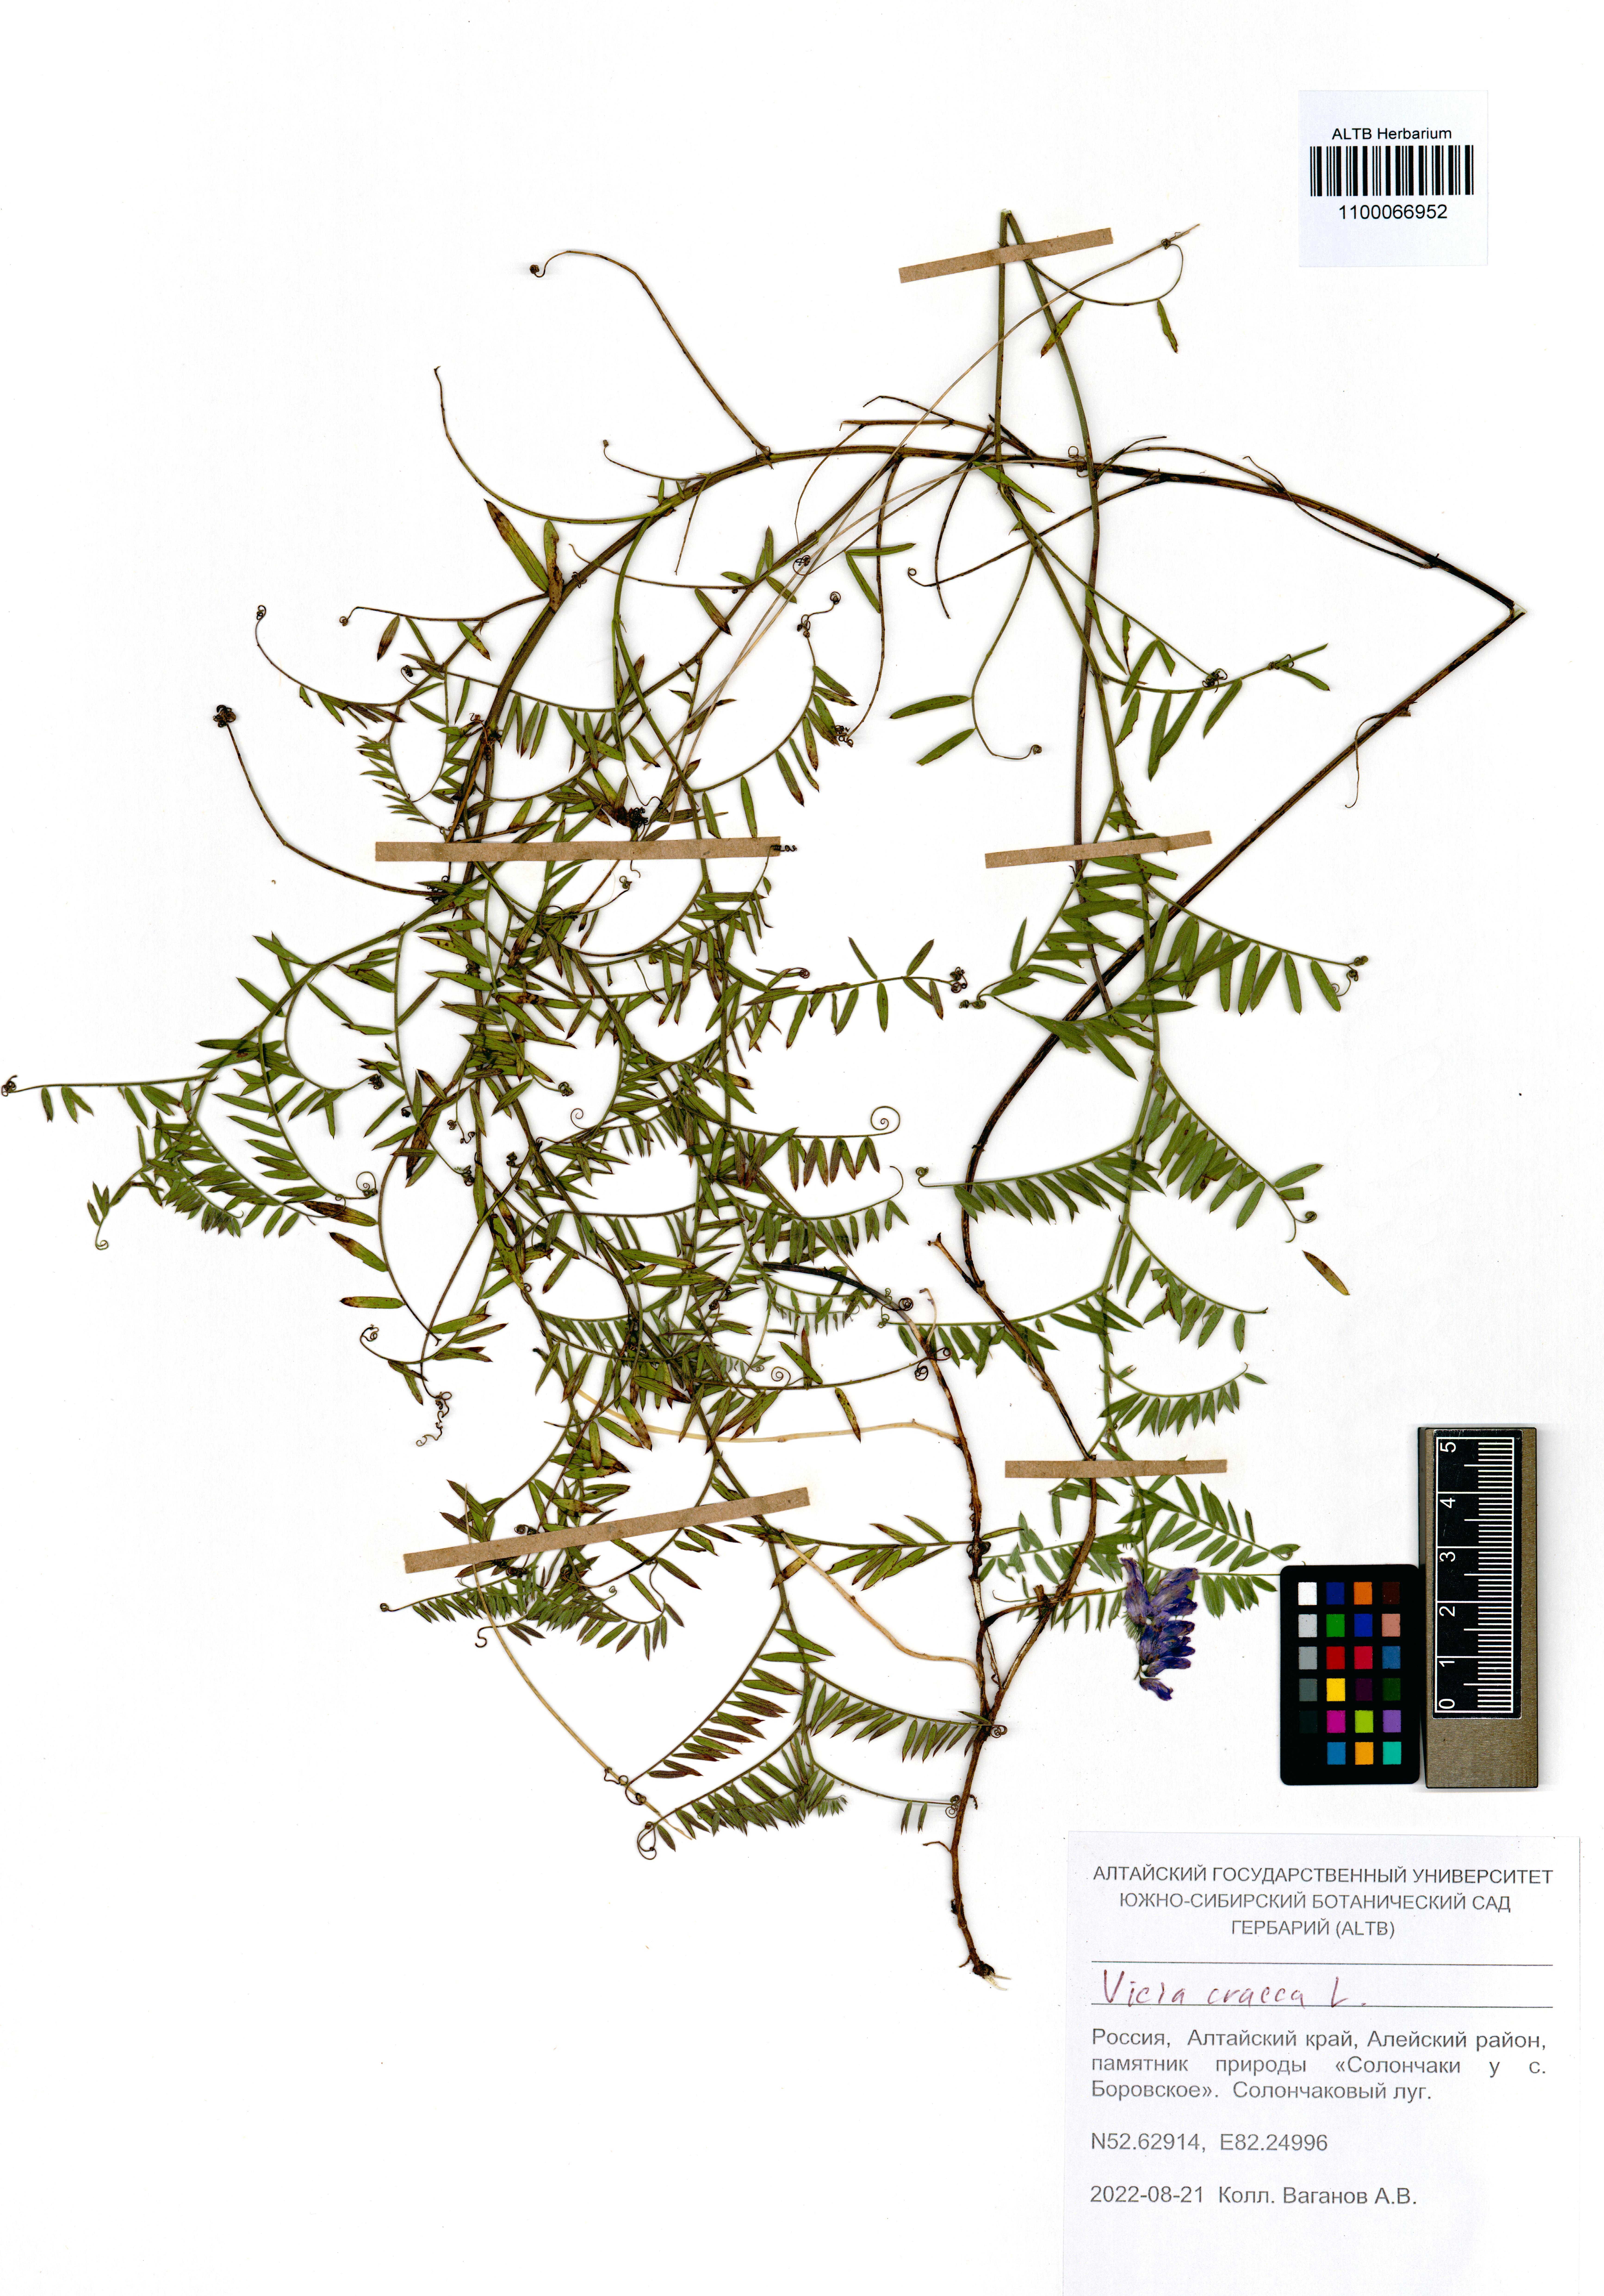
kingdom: Plantae
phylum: Tracheophyta
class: Magnoliopsida
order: Fabales
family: Fabaceae
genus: Vicia
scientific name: Vicia cracca
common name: Bird vetch
